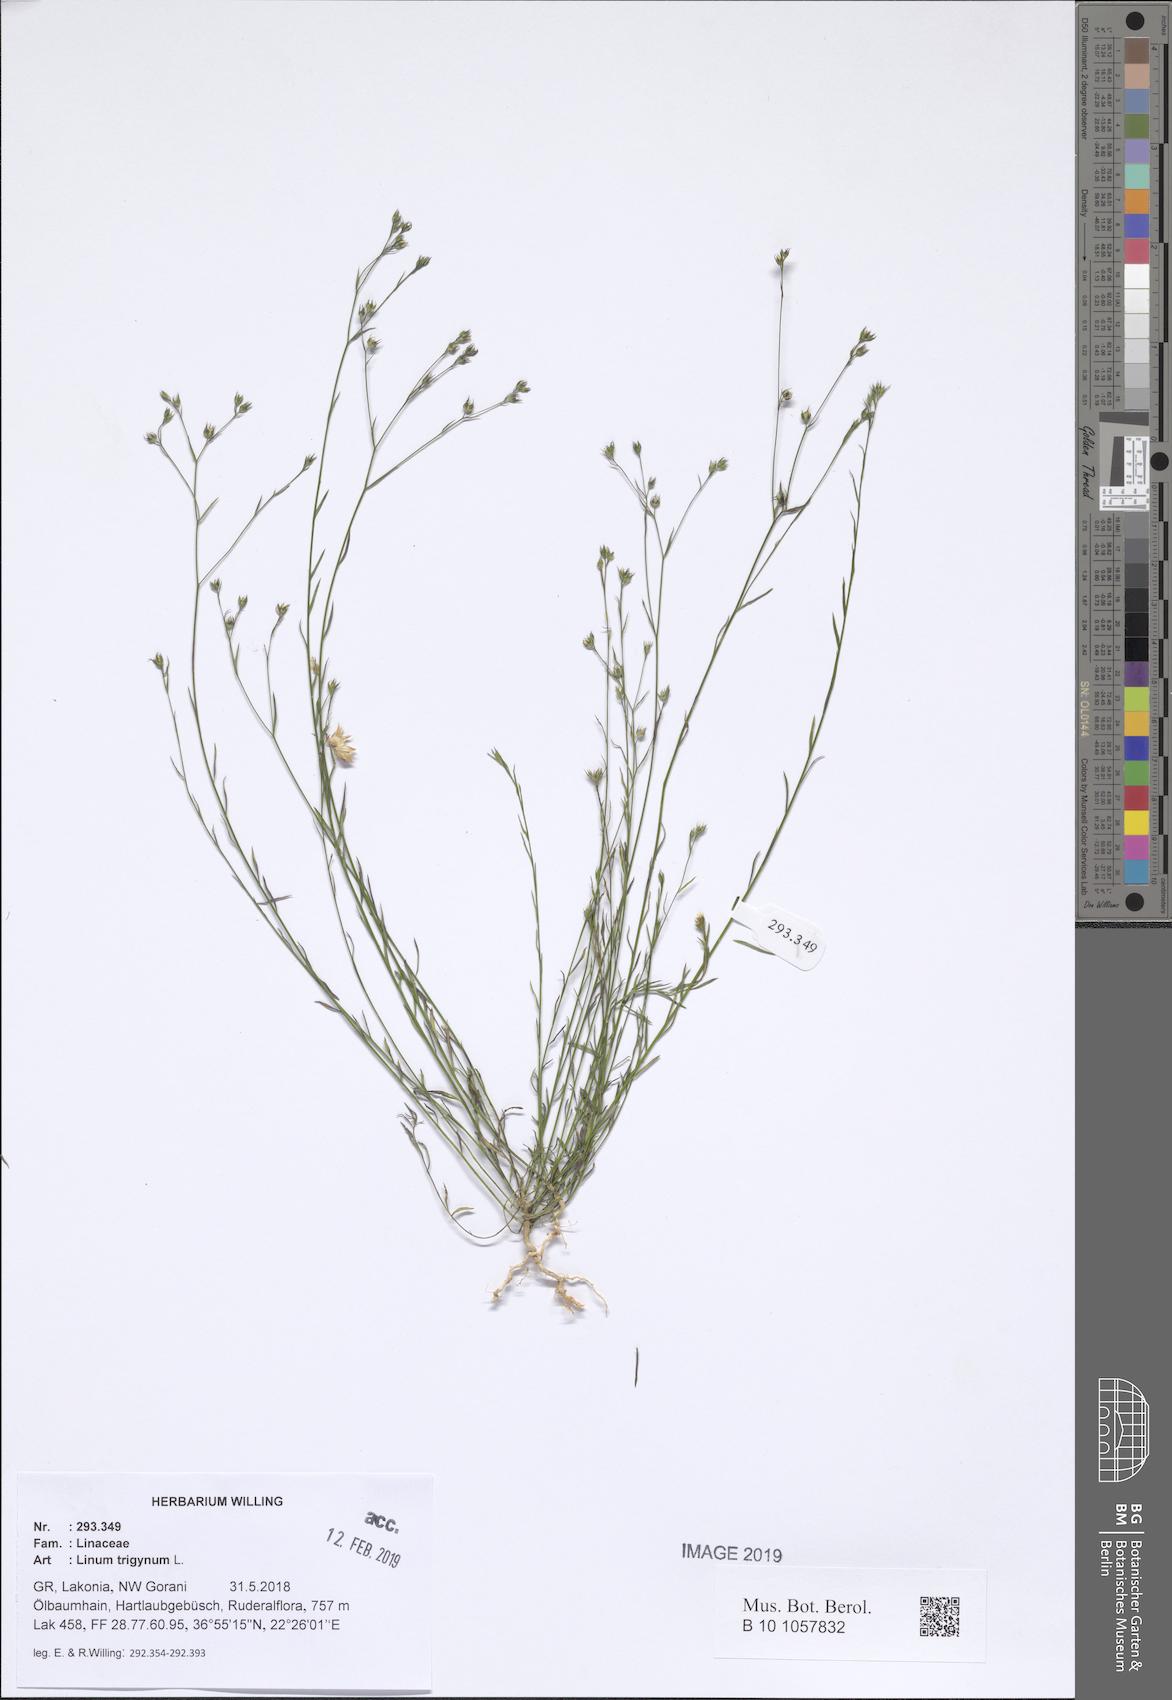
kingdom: Plantae
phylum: Tracheophyta
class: Magnoliopsida
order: Malpighiales
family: Linaceae
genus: Linum
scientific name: Linum trigynum
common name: French flax
